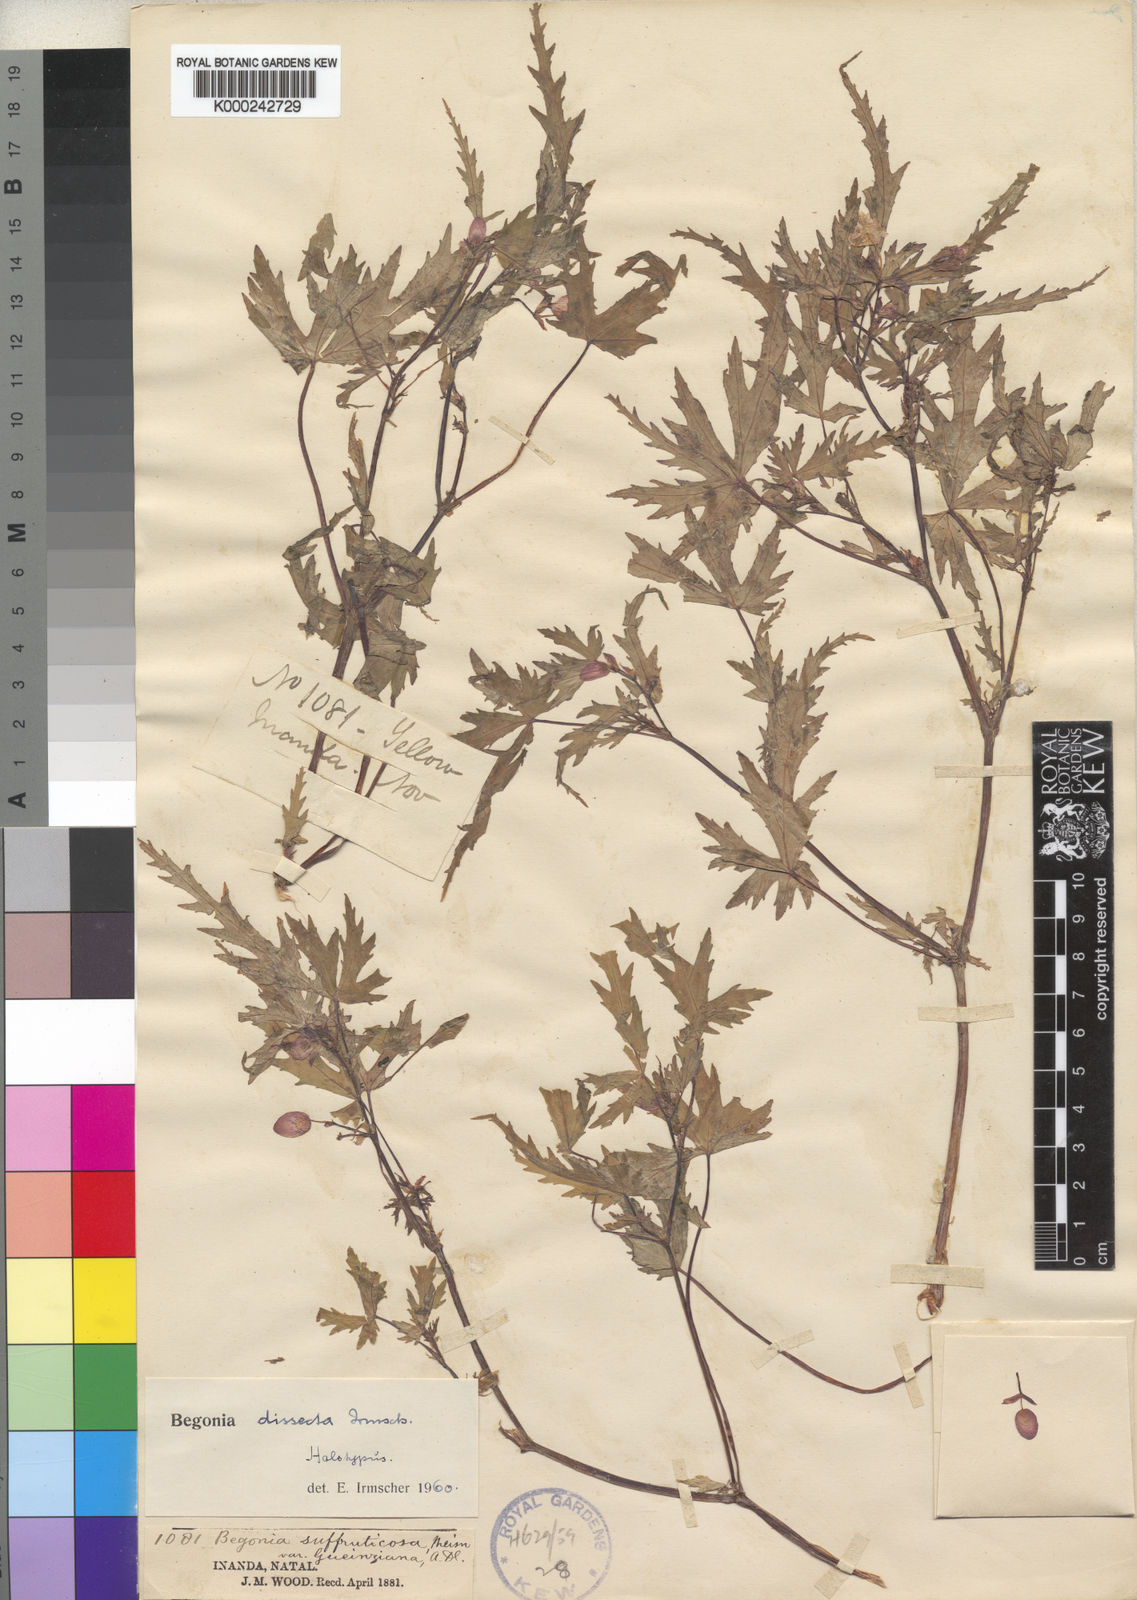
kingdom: Plantae
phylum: Tracheophyta
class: Magnoliopsida
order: Cucurbitales
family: Begoniaceae
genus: Begonia
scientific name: Begonia sutherlandii
